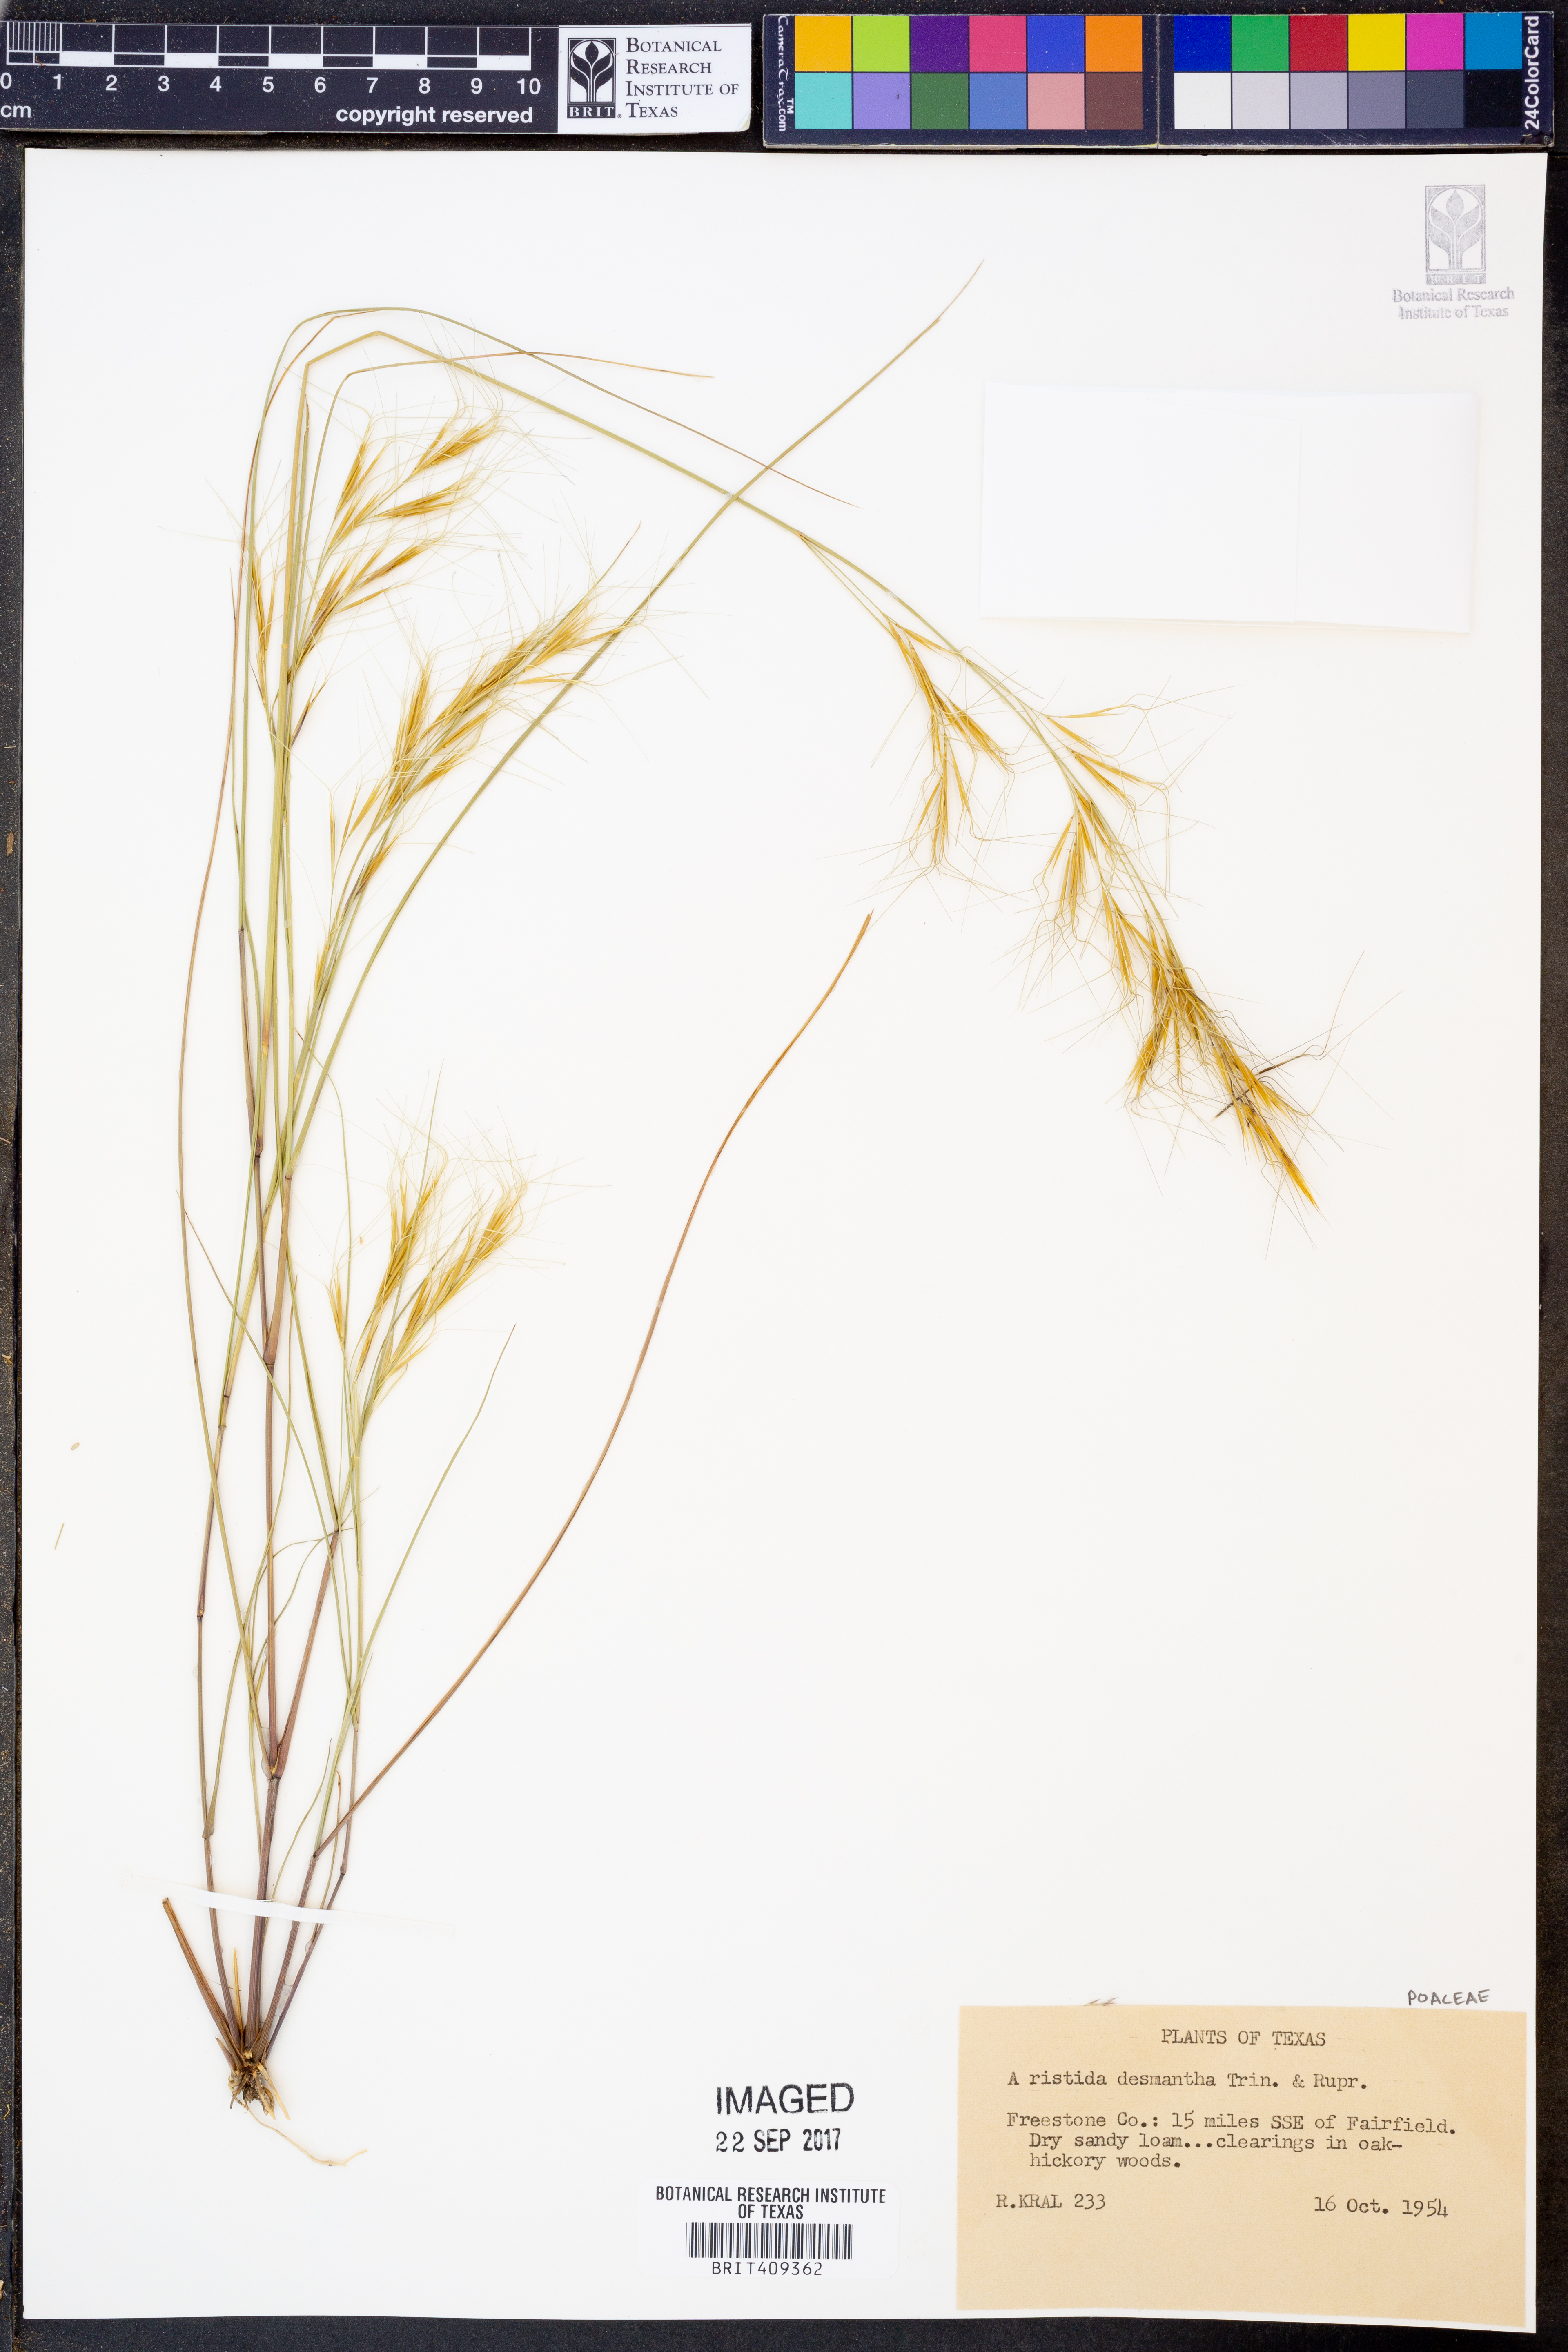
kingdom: Plantae
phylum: Tracheophyta
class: Liliopsida
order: Poales
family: Poaceae
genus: Aristida
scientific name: Aristida desmantha
